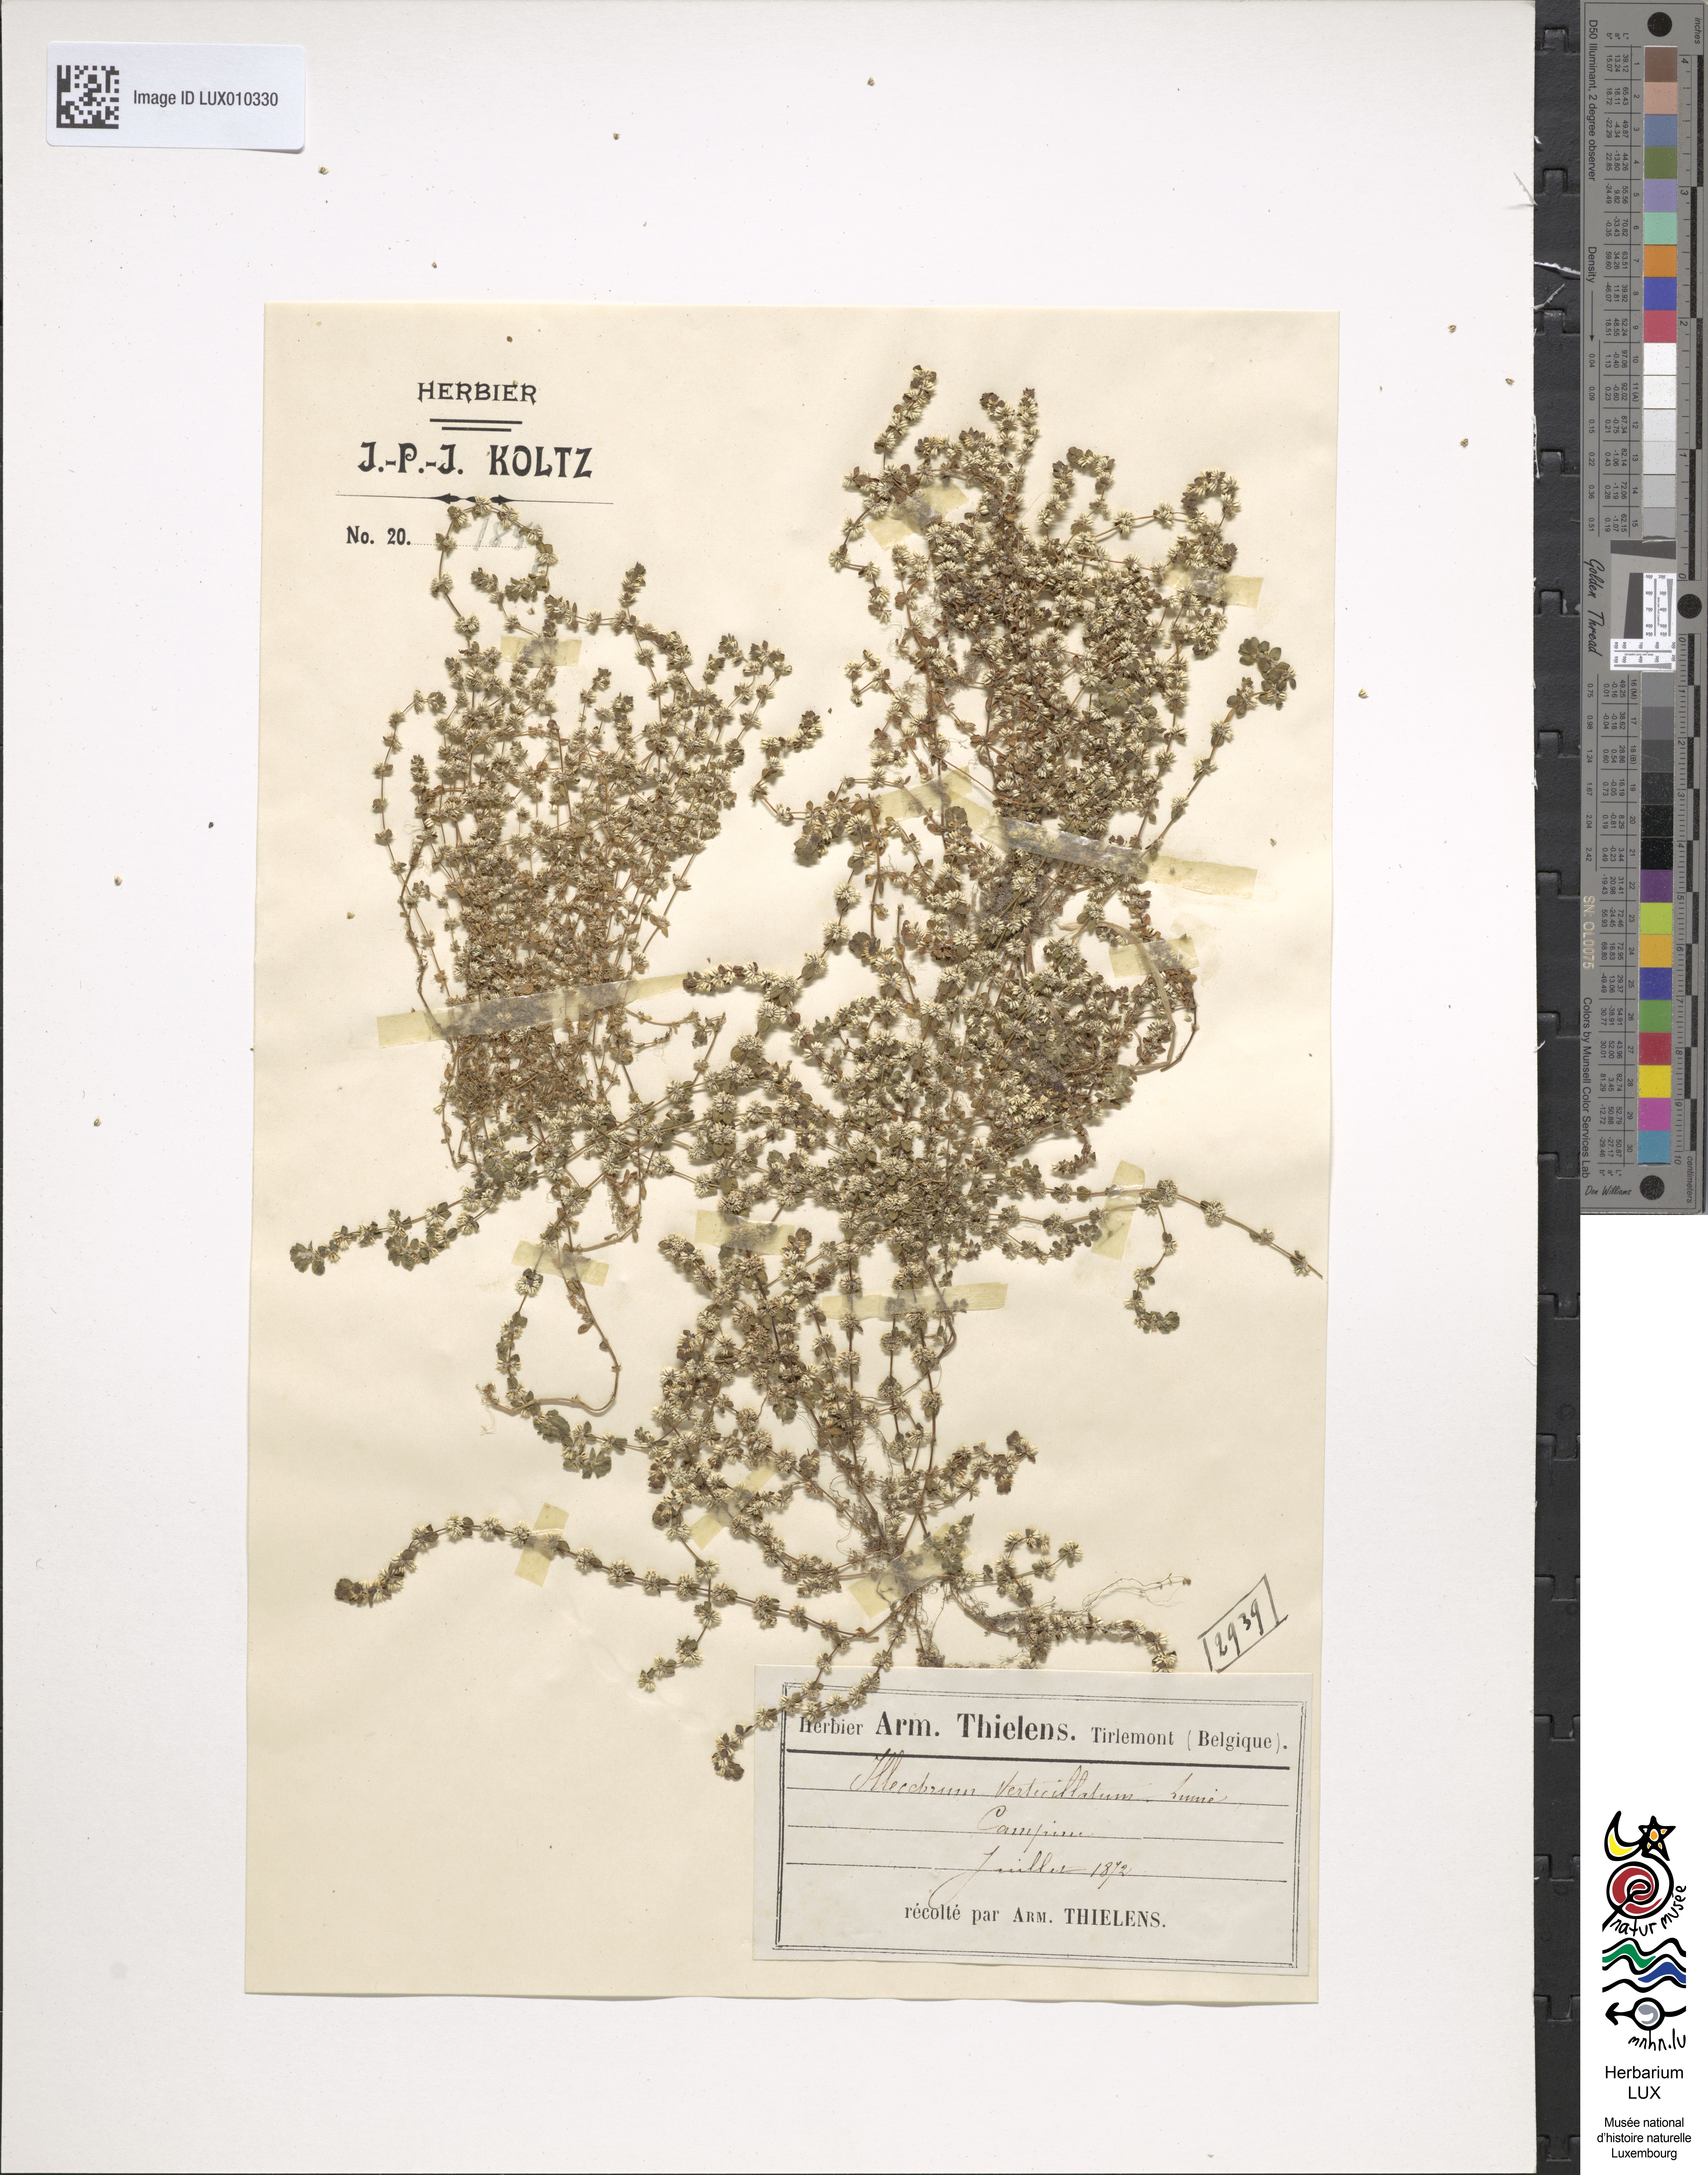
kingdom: Plantae
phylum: Tracheophyta
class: Magnoliopsida
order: Caryophyllales
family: Caryophyllaceae
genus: Illecebrum
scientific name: Illecebrum verticillatum
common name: Coral necklace
